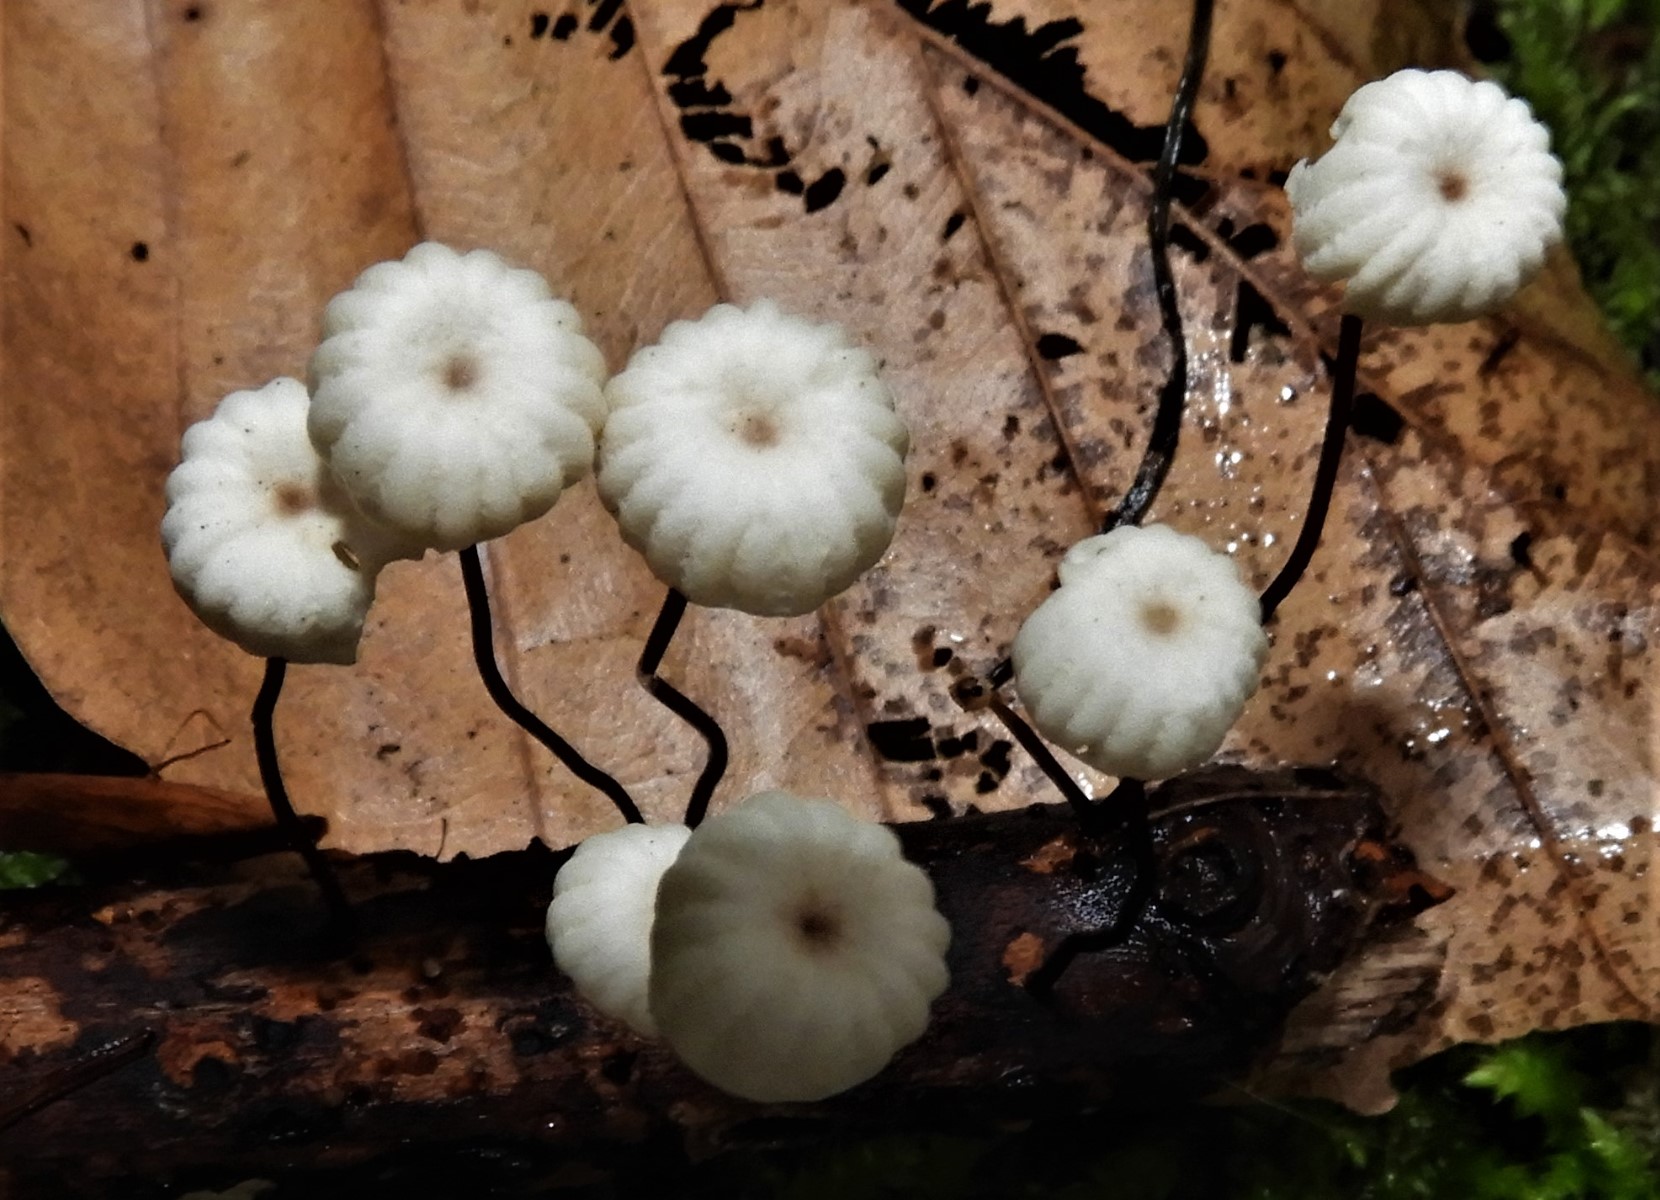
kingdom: Fungi
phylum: Basidiomycota
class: Agaricomycetes
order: Agaricales
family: Marasmiaceae
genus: Marasmius
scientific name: Marasmius rotula
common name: hjul-bruskhat
